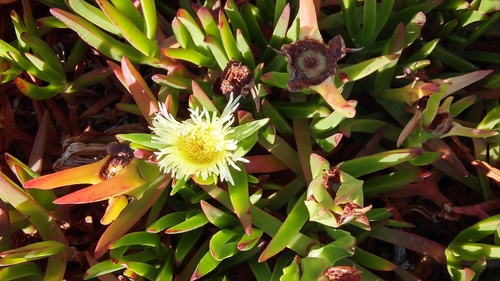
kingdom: Plantae
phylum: Tracheophyta
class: Magnoliopsida
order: Caryophyllales
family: Aizoaceae
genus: Carpobrotus
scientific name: Carpobrotus edulis
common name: Hottentot-fig
